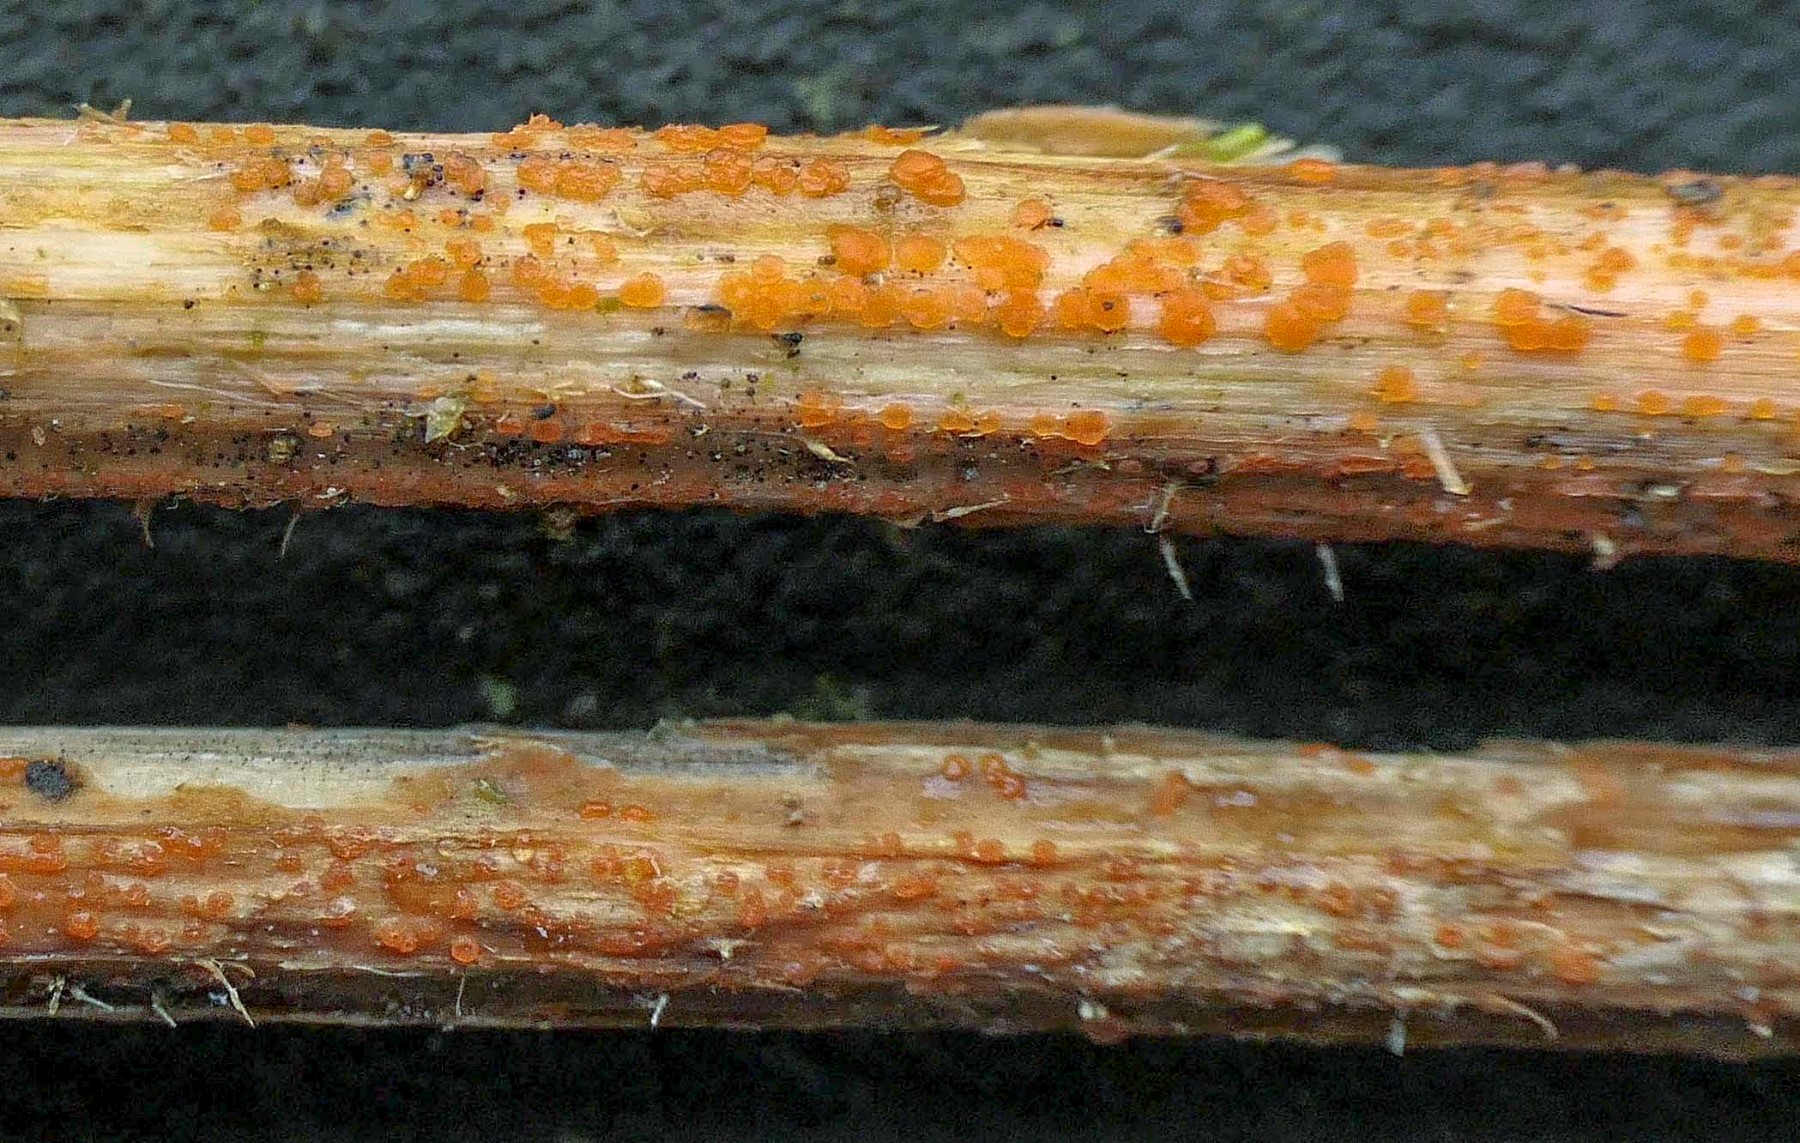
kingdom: Fungi
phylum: Ascomycota
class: Leotiomycetes
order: Helotiales
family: Calloriaceae
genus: Calloria
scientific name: Calloria urticae
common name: nælde-orangeskive
